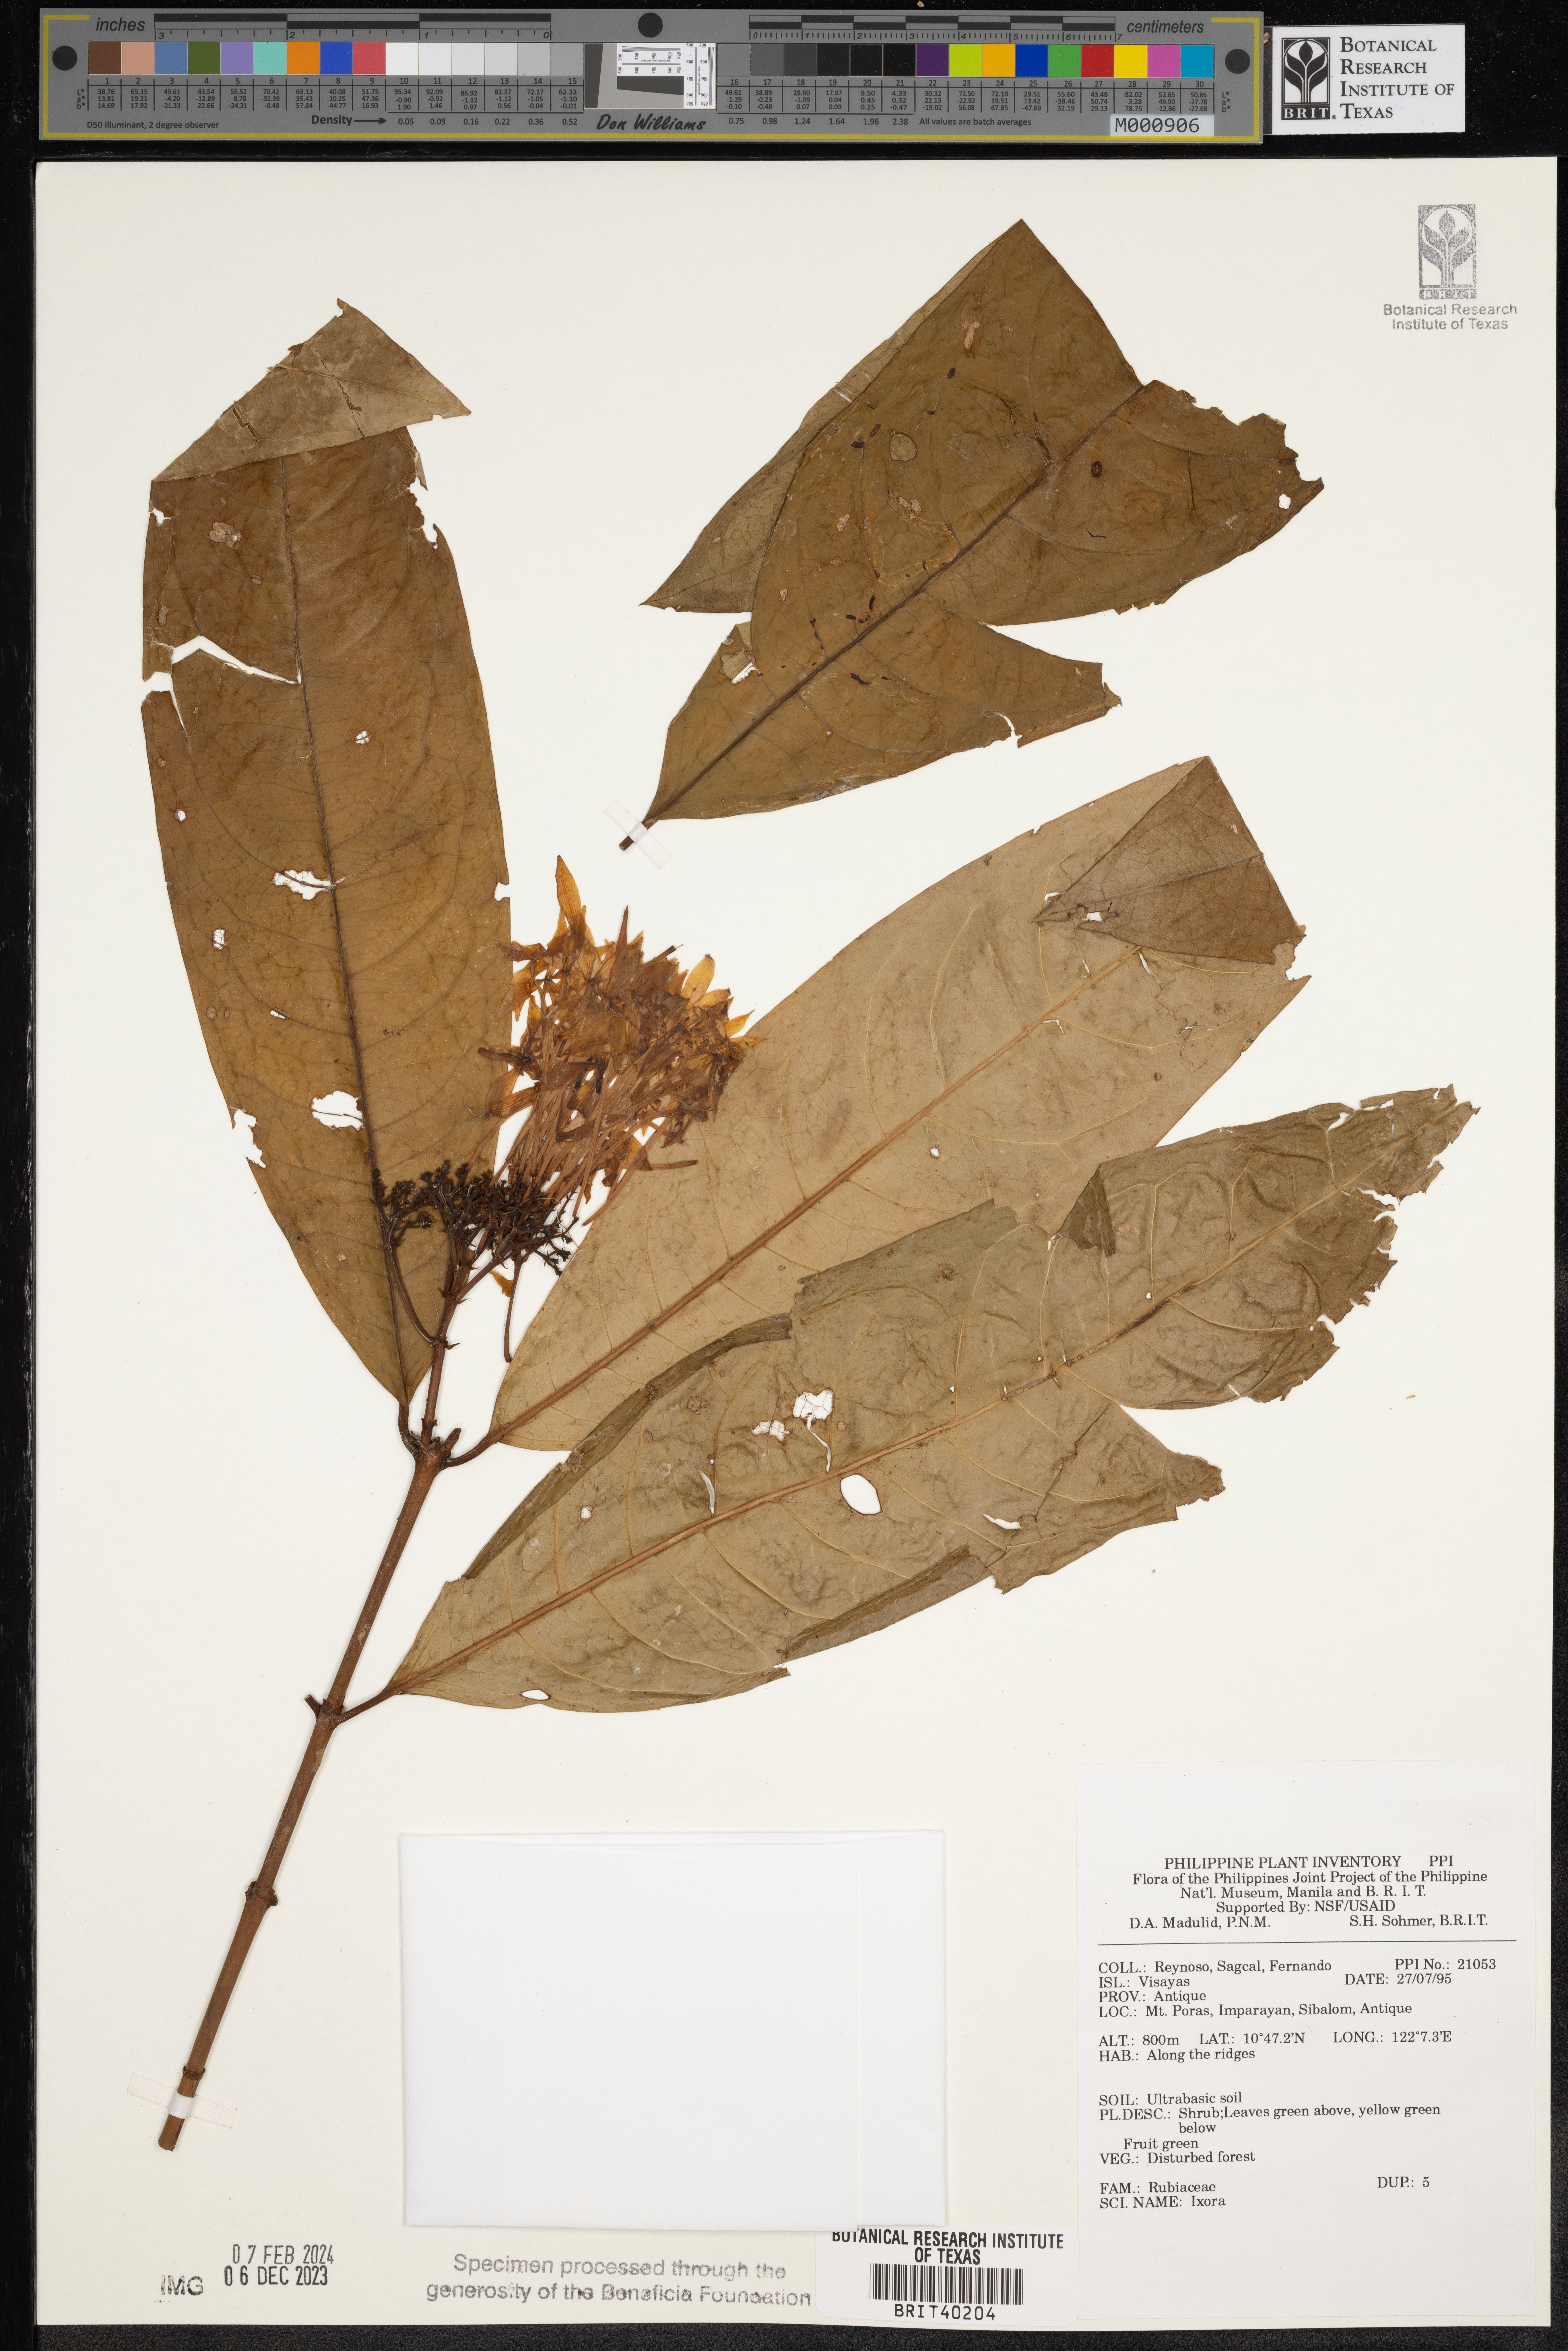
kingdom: Plantae
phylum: Tracheophyta
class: Magnoliopsida
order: Gentianales
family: Rubiaceae
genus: Ixora
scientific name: Ixora
